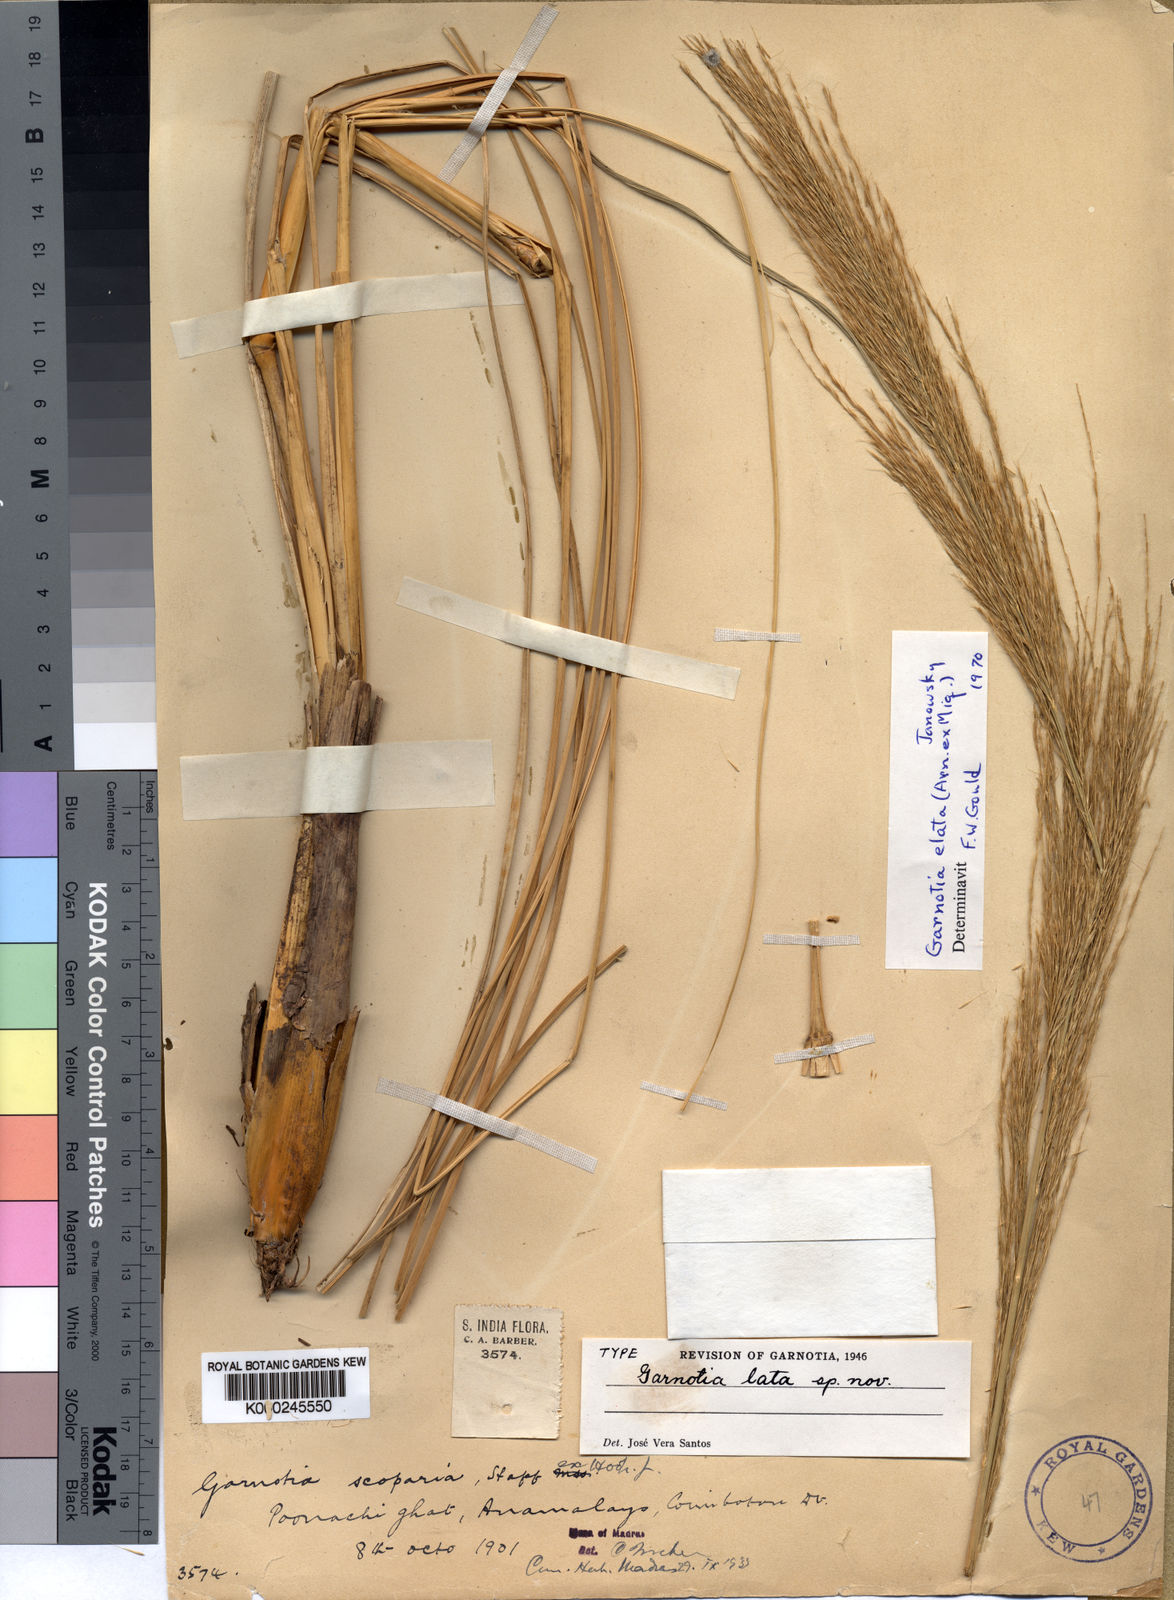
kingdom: Plantae
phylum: Tracheophyta
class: Liliopsida
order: Poales
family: Poaceae
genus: Garnotia
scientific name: Garnotia elata
